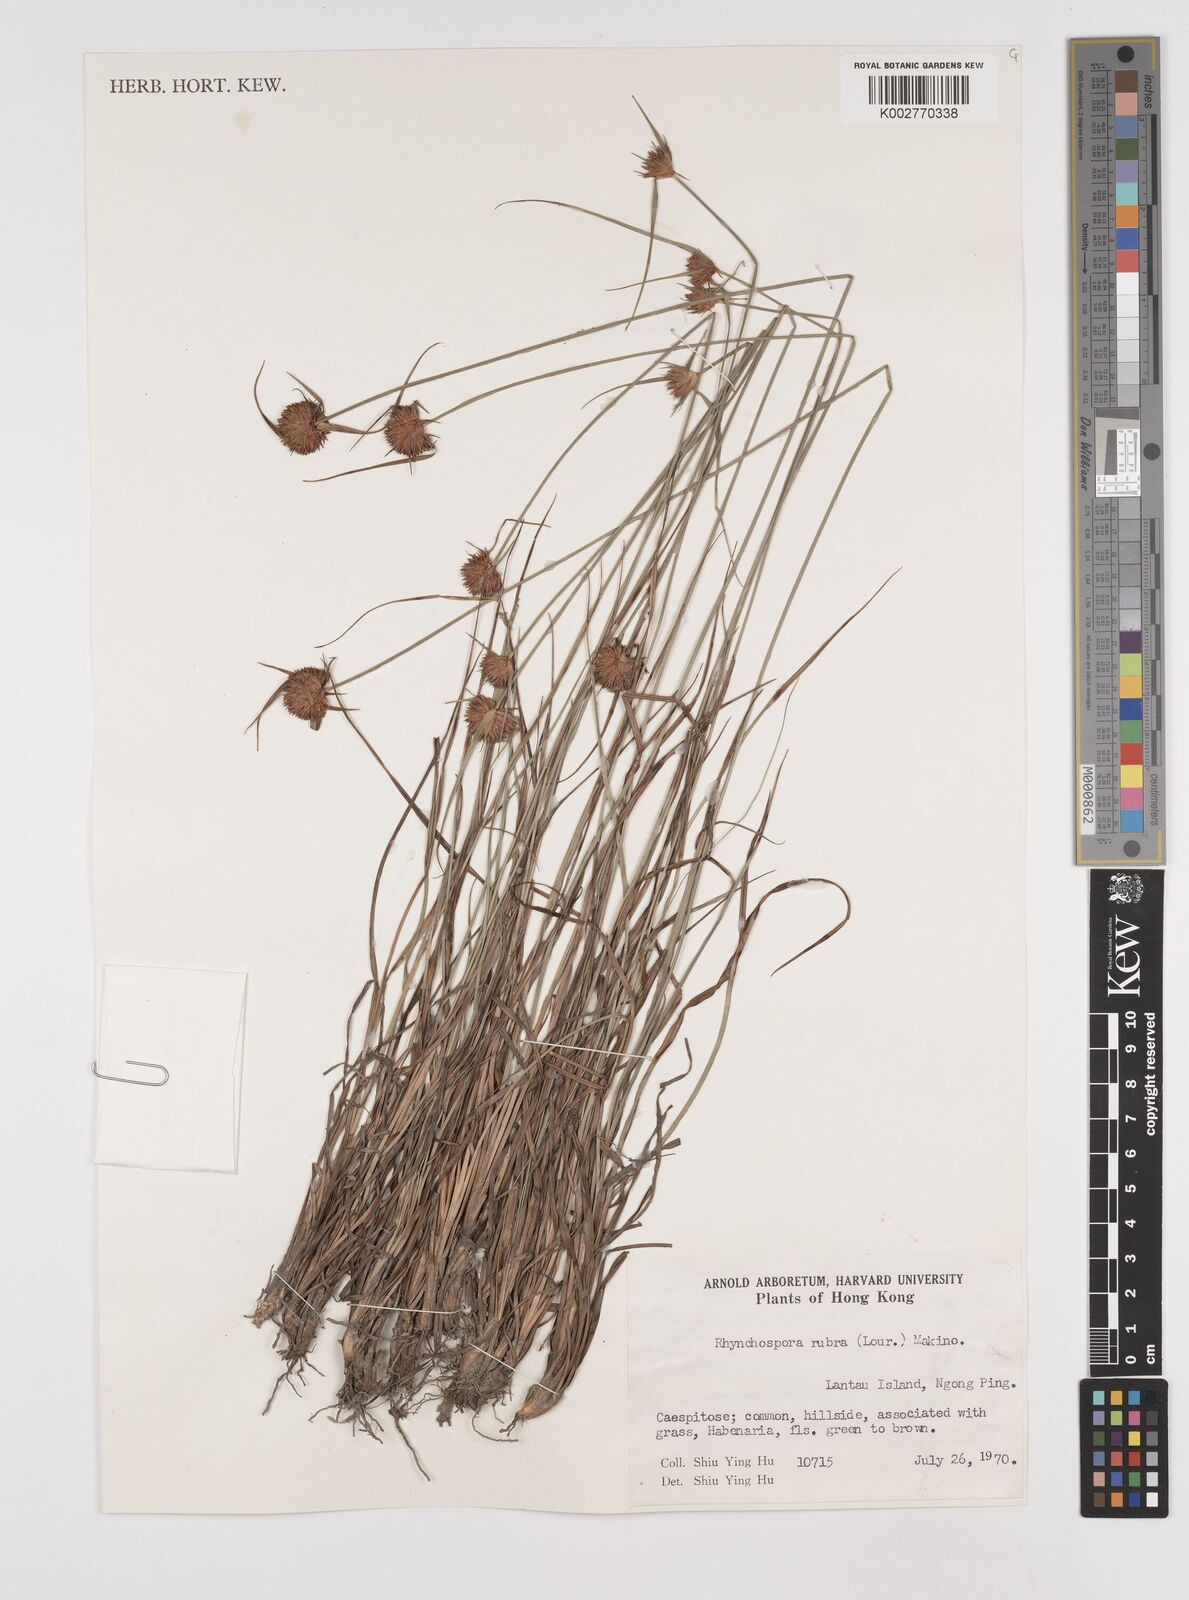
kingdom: Plantae
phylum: Tracheophyta
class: Liliopsida
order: Poales
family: Cyperaceae
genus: Rhynchospora
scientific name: Rhynchospora rubra
